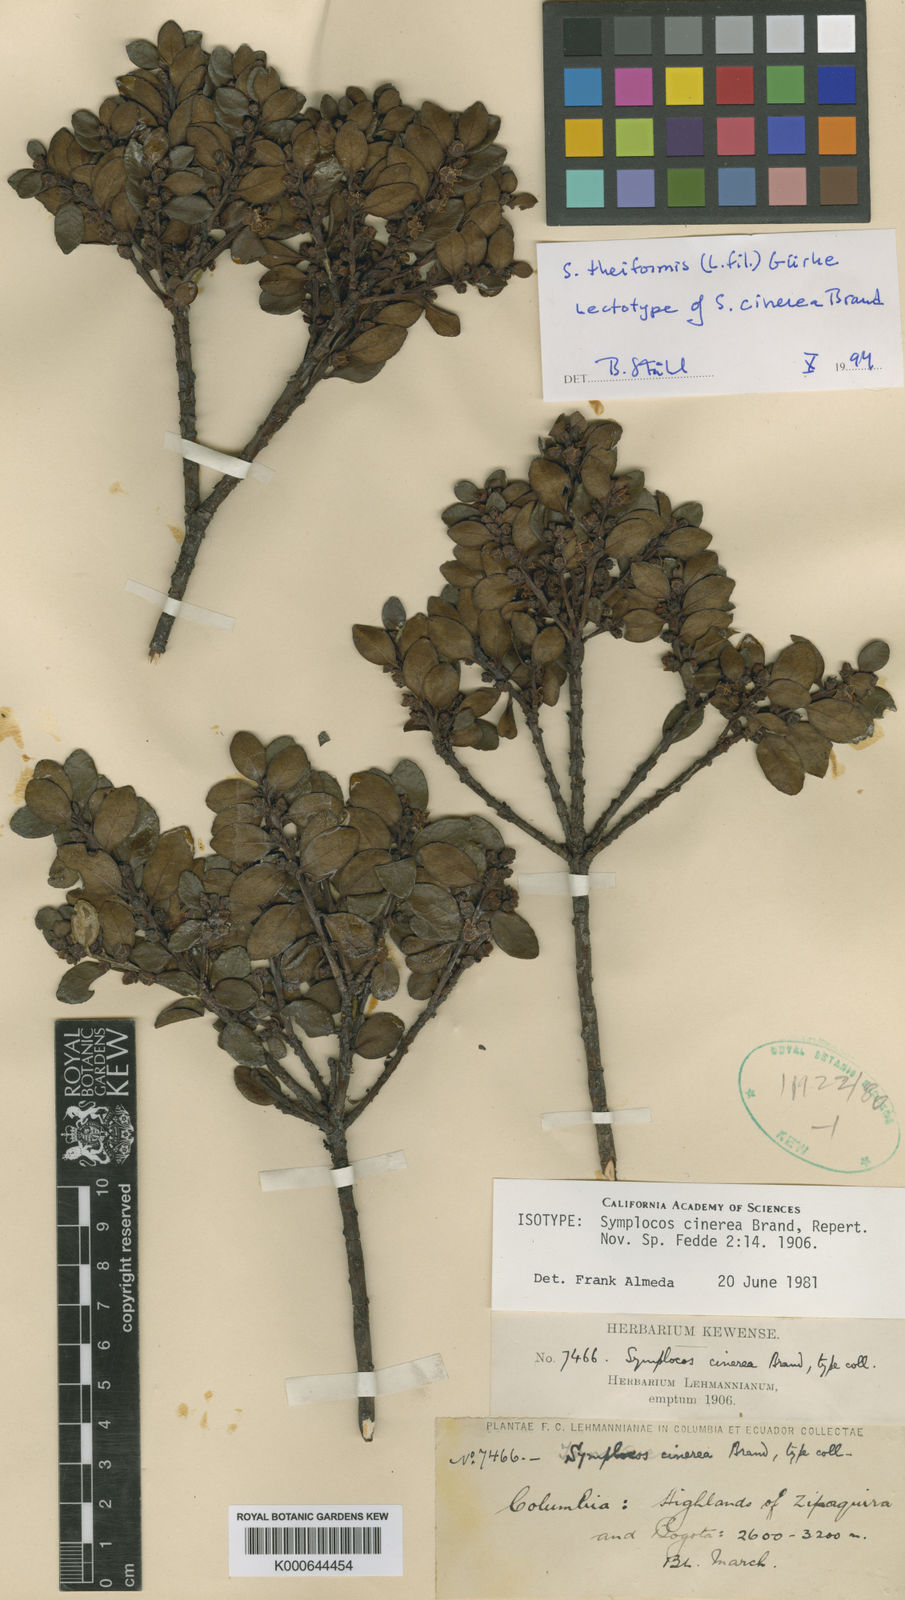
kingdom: Plantae
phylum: Tracheophyta
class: Magnoliopsida
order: Ericales
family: Symplocaceae
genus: Symplocos
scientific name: Symplocos
